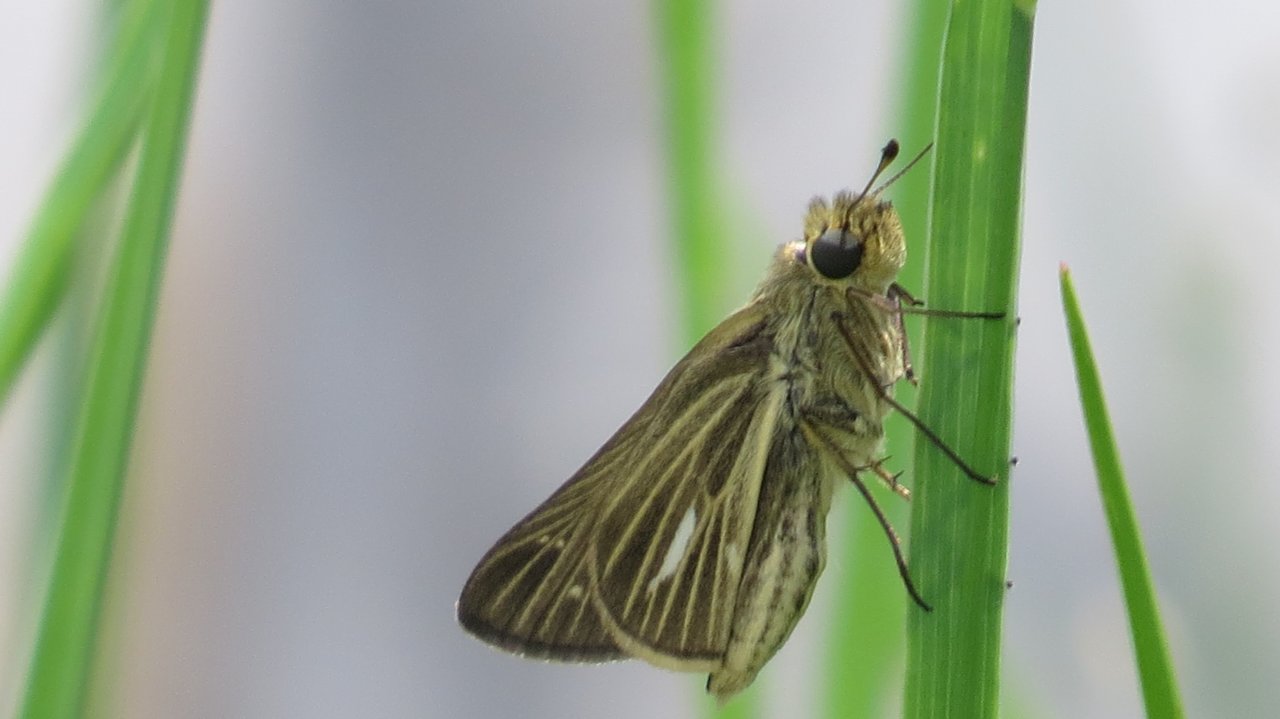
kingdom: Animalia
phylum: Arthropoda
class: Insecta
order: Lepidoptera
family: Hesperiidae
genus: Panoquina
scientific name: Panoquina panoquin
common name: Salt Marsh Skipper
